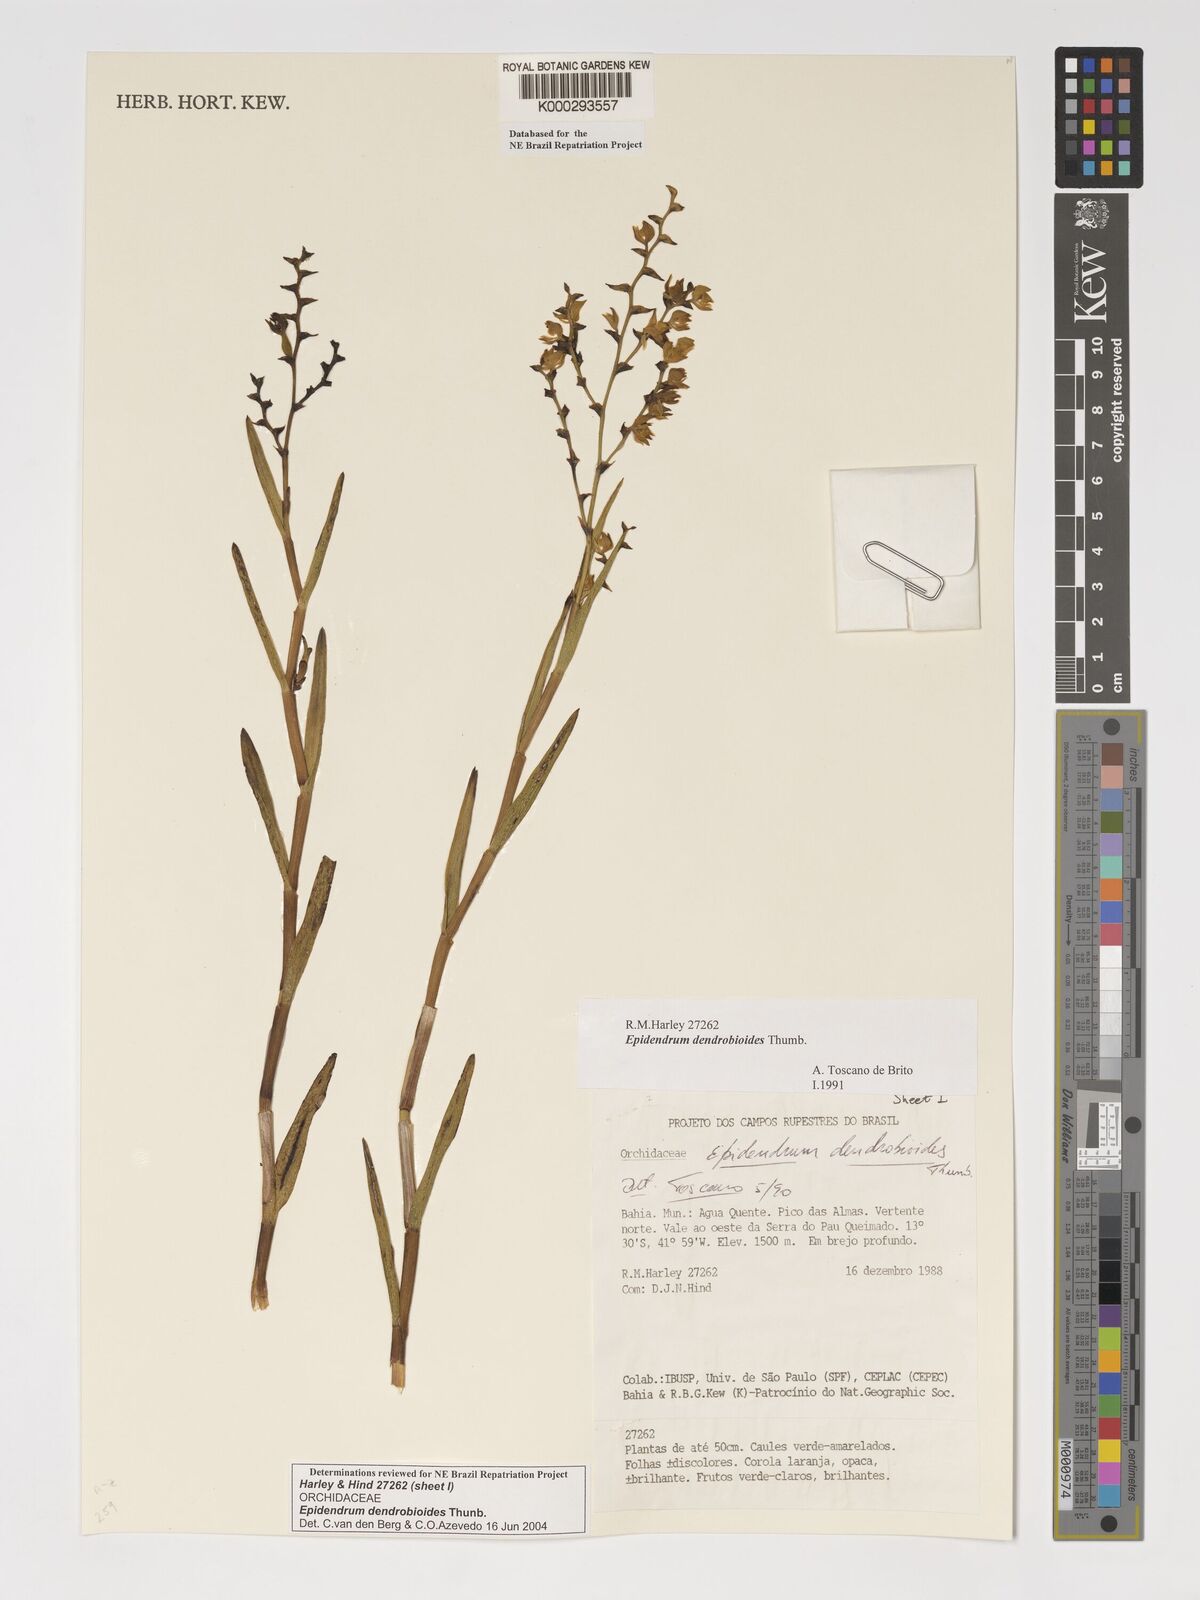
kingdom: Plantae
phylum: Tracheophyta
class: Liliopsida
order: Asparagales
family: Orchidaceae
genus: Epidendrum
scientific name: Epidendrum dendrobioides
